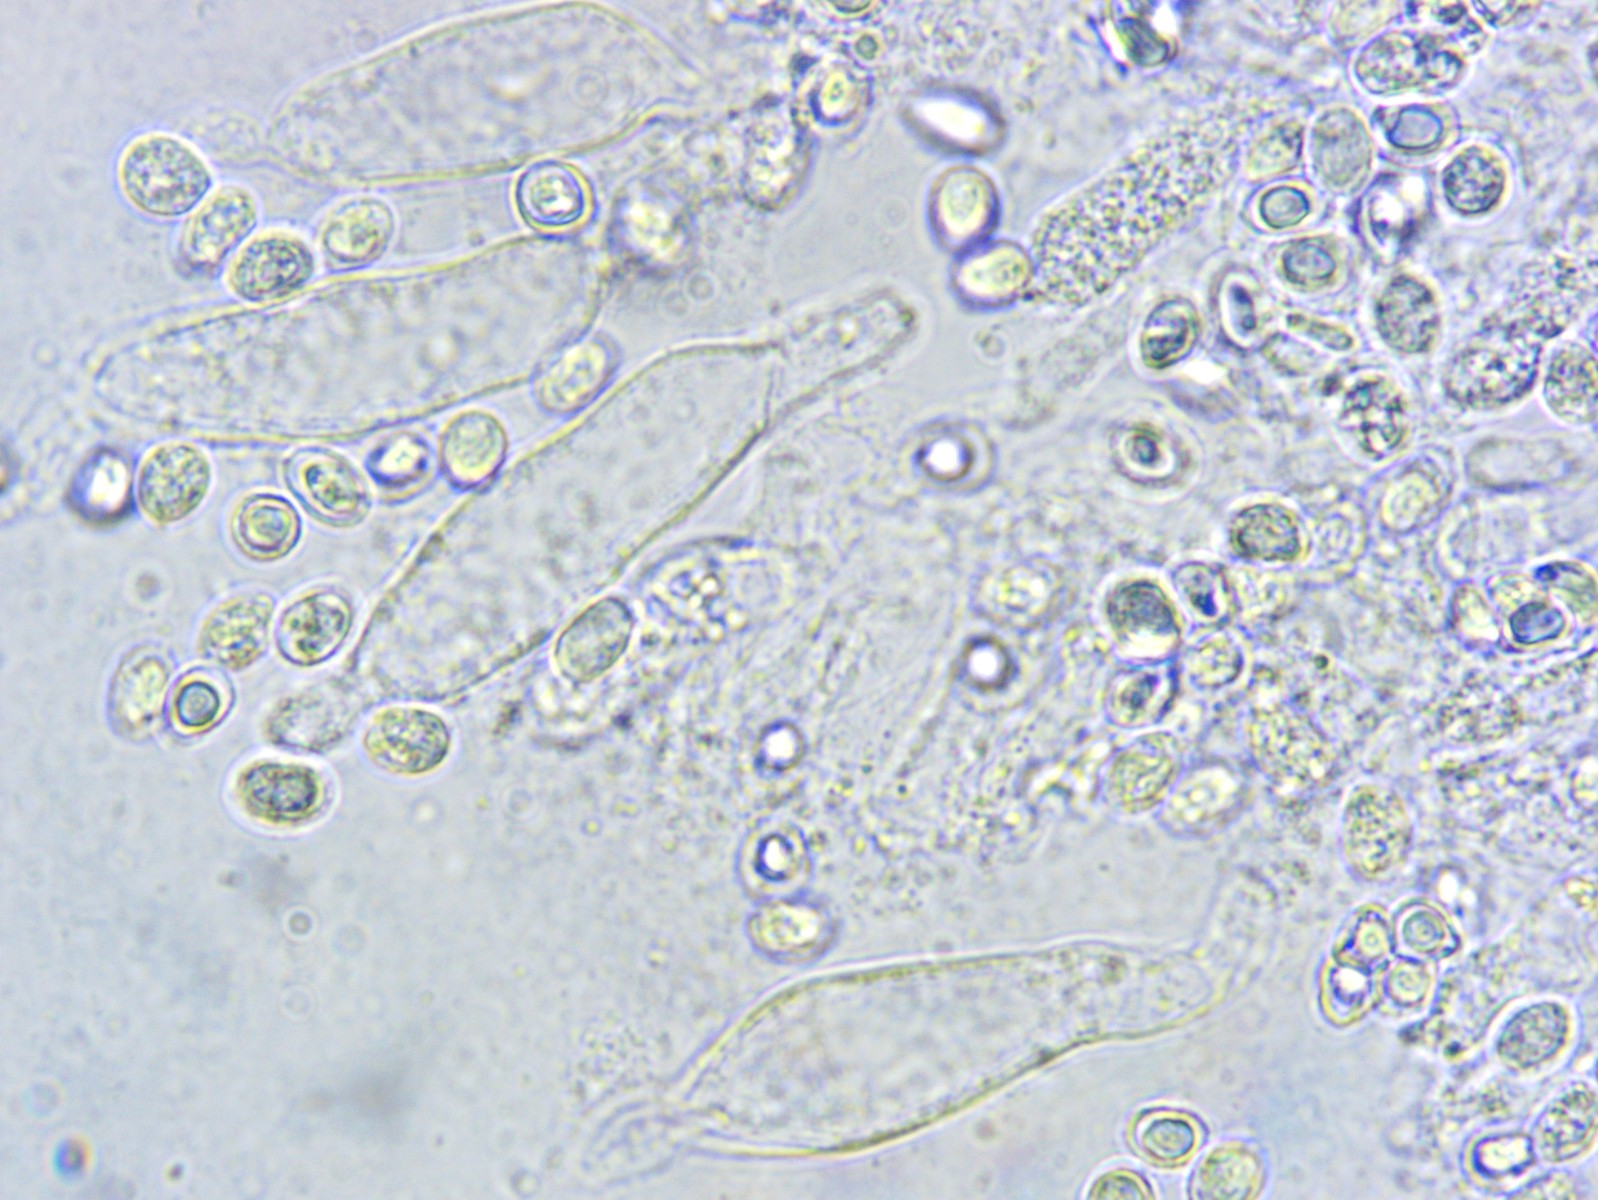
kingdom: Fungi
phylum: Basidiomycota
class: Agaricomycetes
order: Agaricales
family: Porotheleaceae
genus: Phloeomana
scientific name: Phloeomana hiemalis
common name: sen huesvamp
